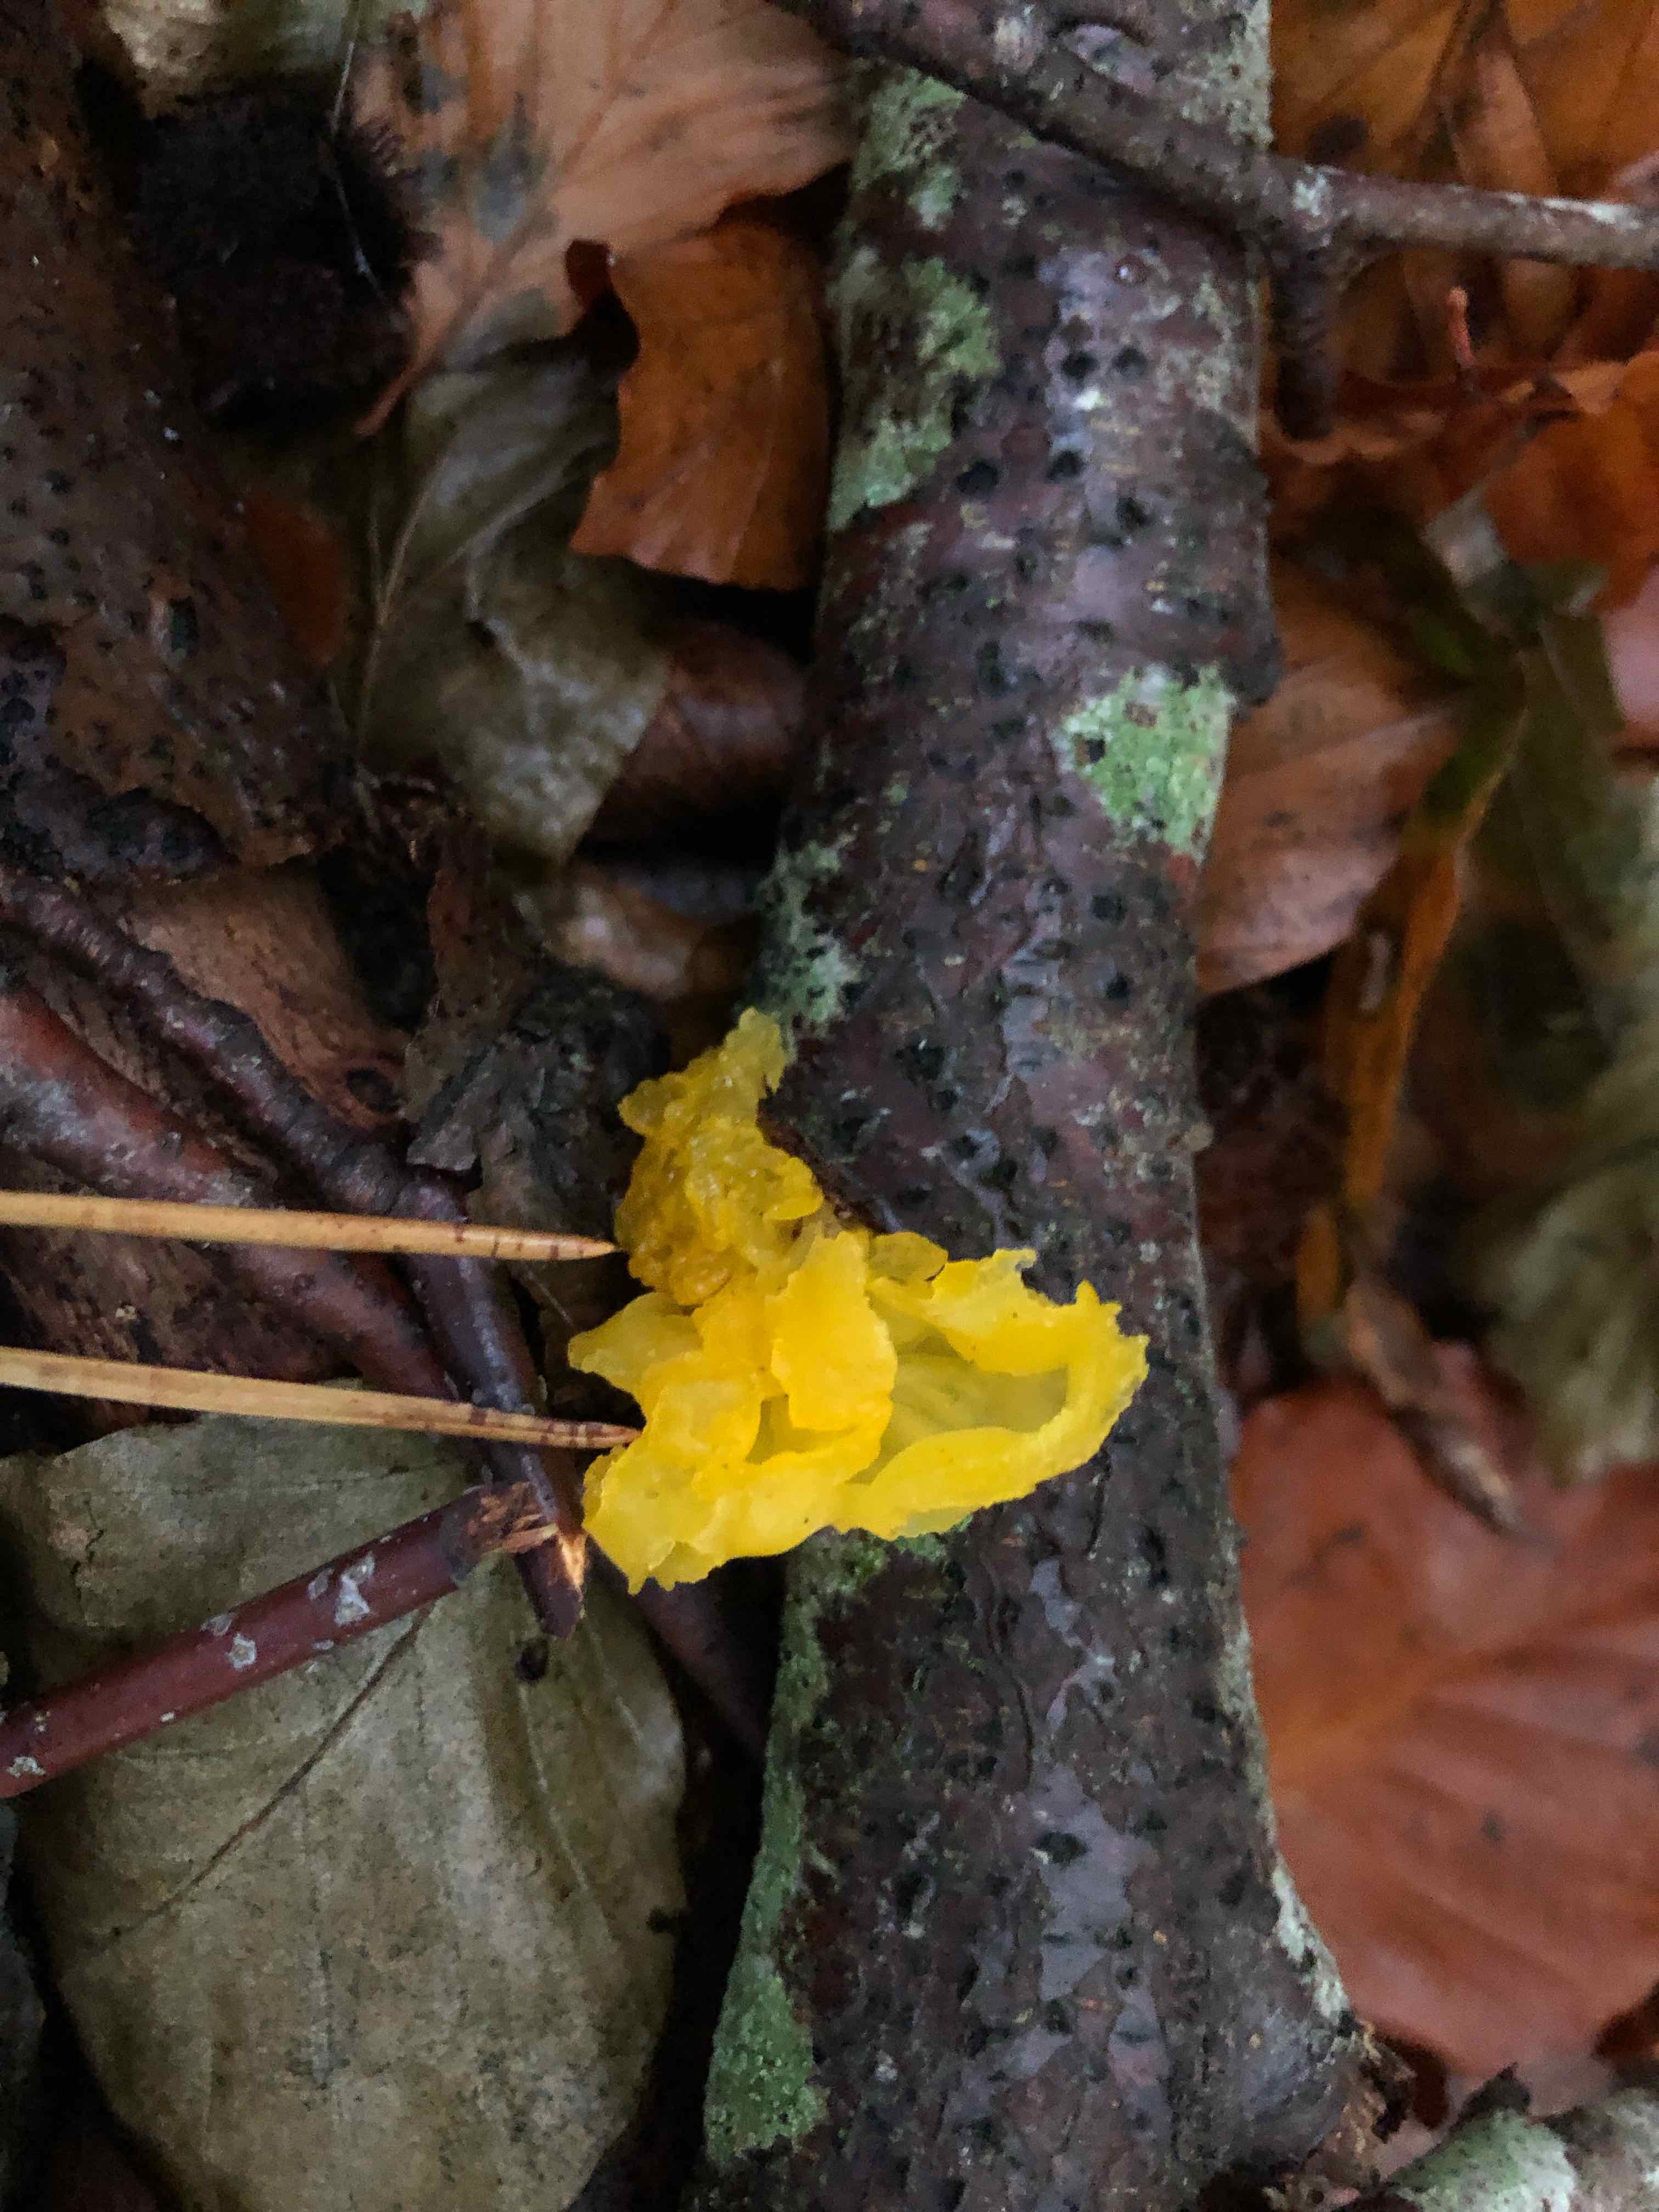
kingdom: Fungi
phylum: Basidiomycota
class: Tremellomycetes
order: Tremellales
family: Tremellaceae
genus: Tremella
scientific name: Tremella mesenterica
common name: gul bævresvamp
